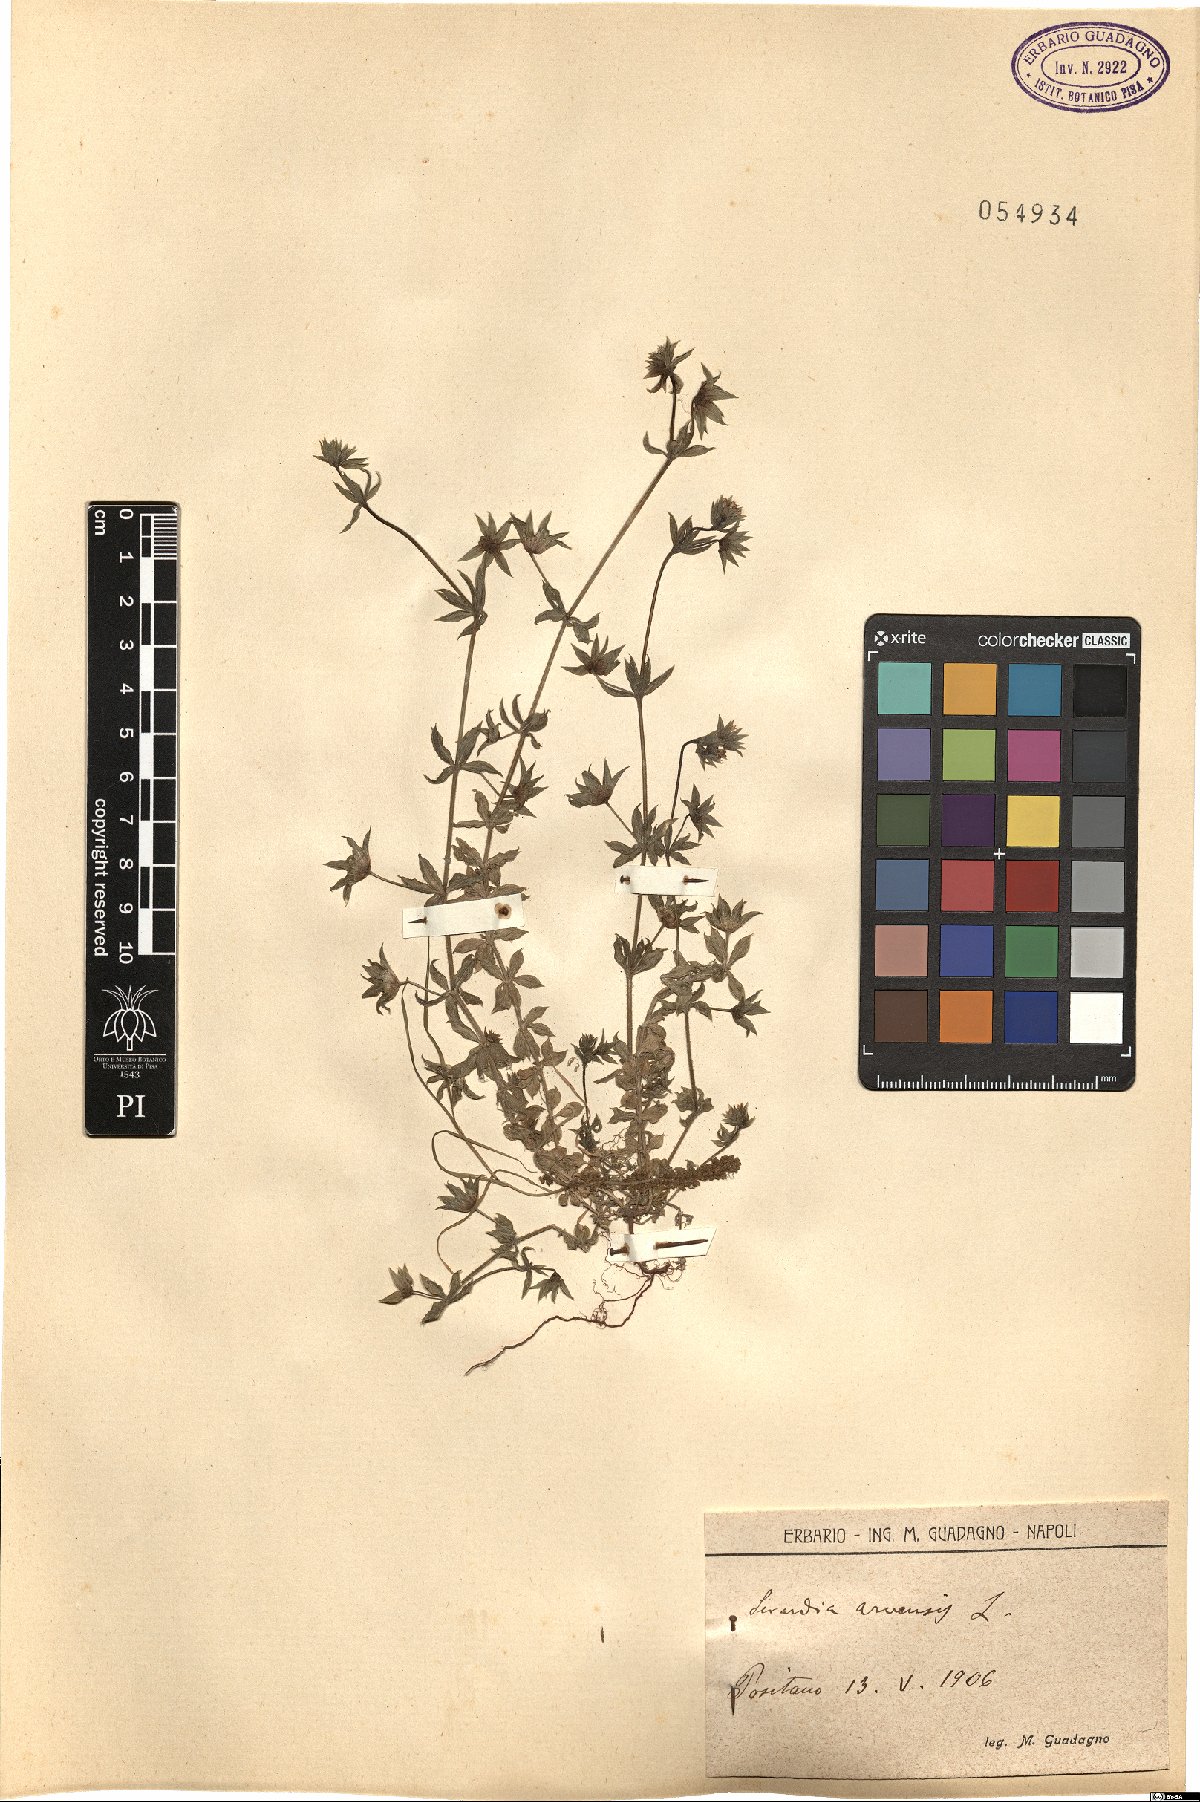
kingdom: Plantae
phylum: Tracheophyta
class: Magnoliopsida
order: Gentianales
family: Rubiaceae
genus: Sherardia
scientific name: Sherardia arvensis
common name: Field madder
